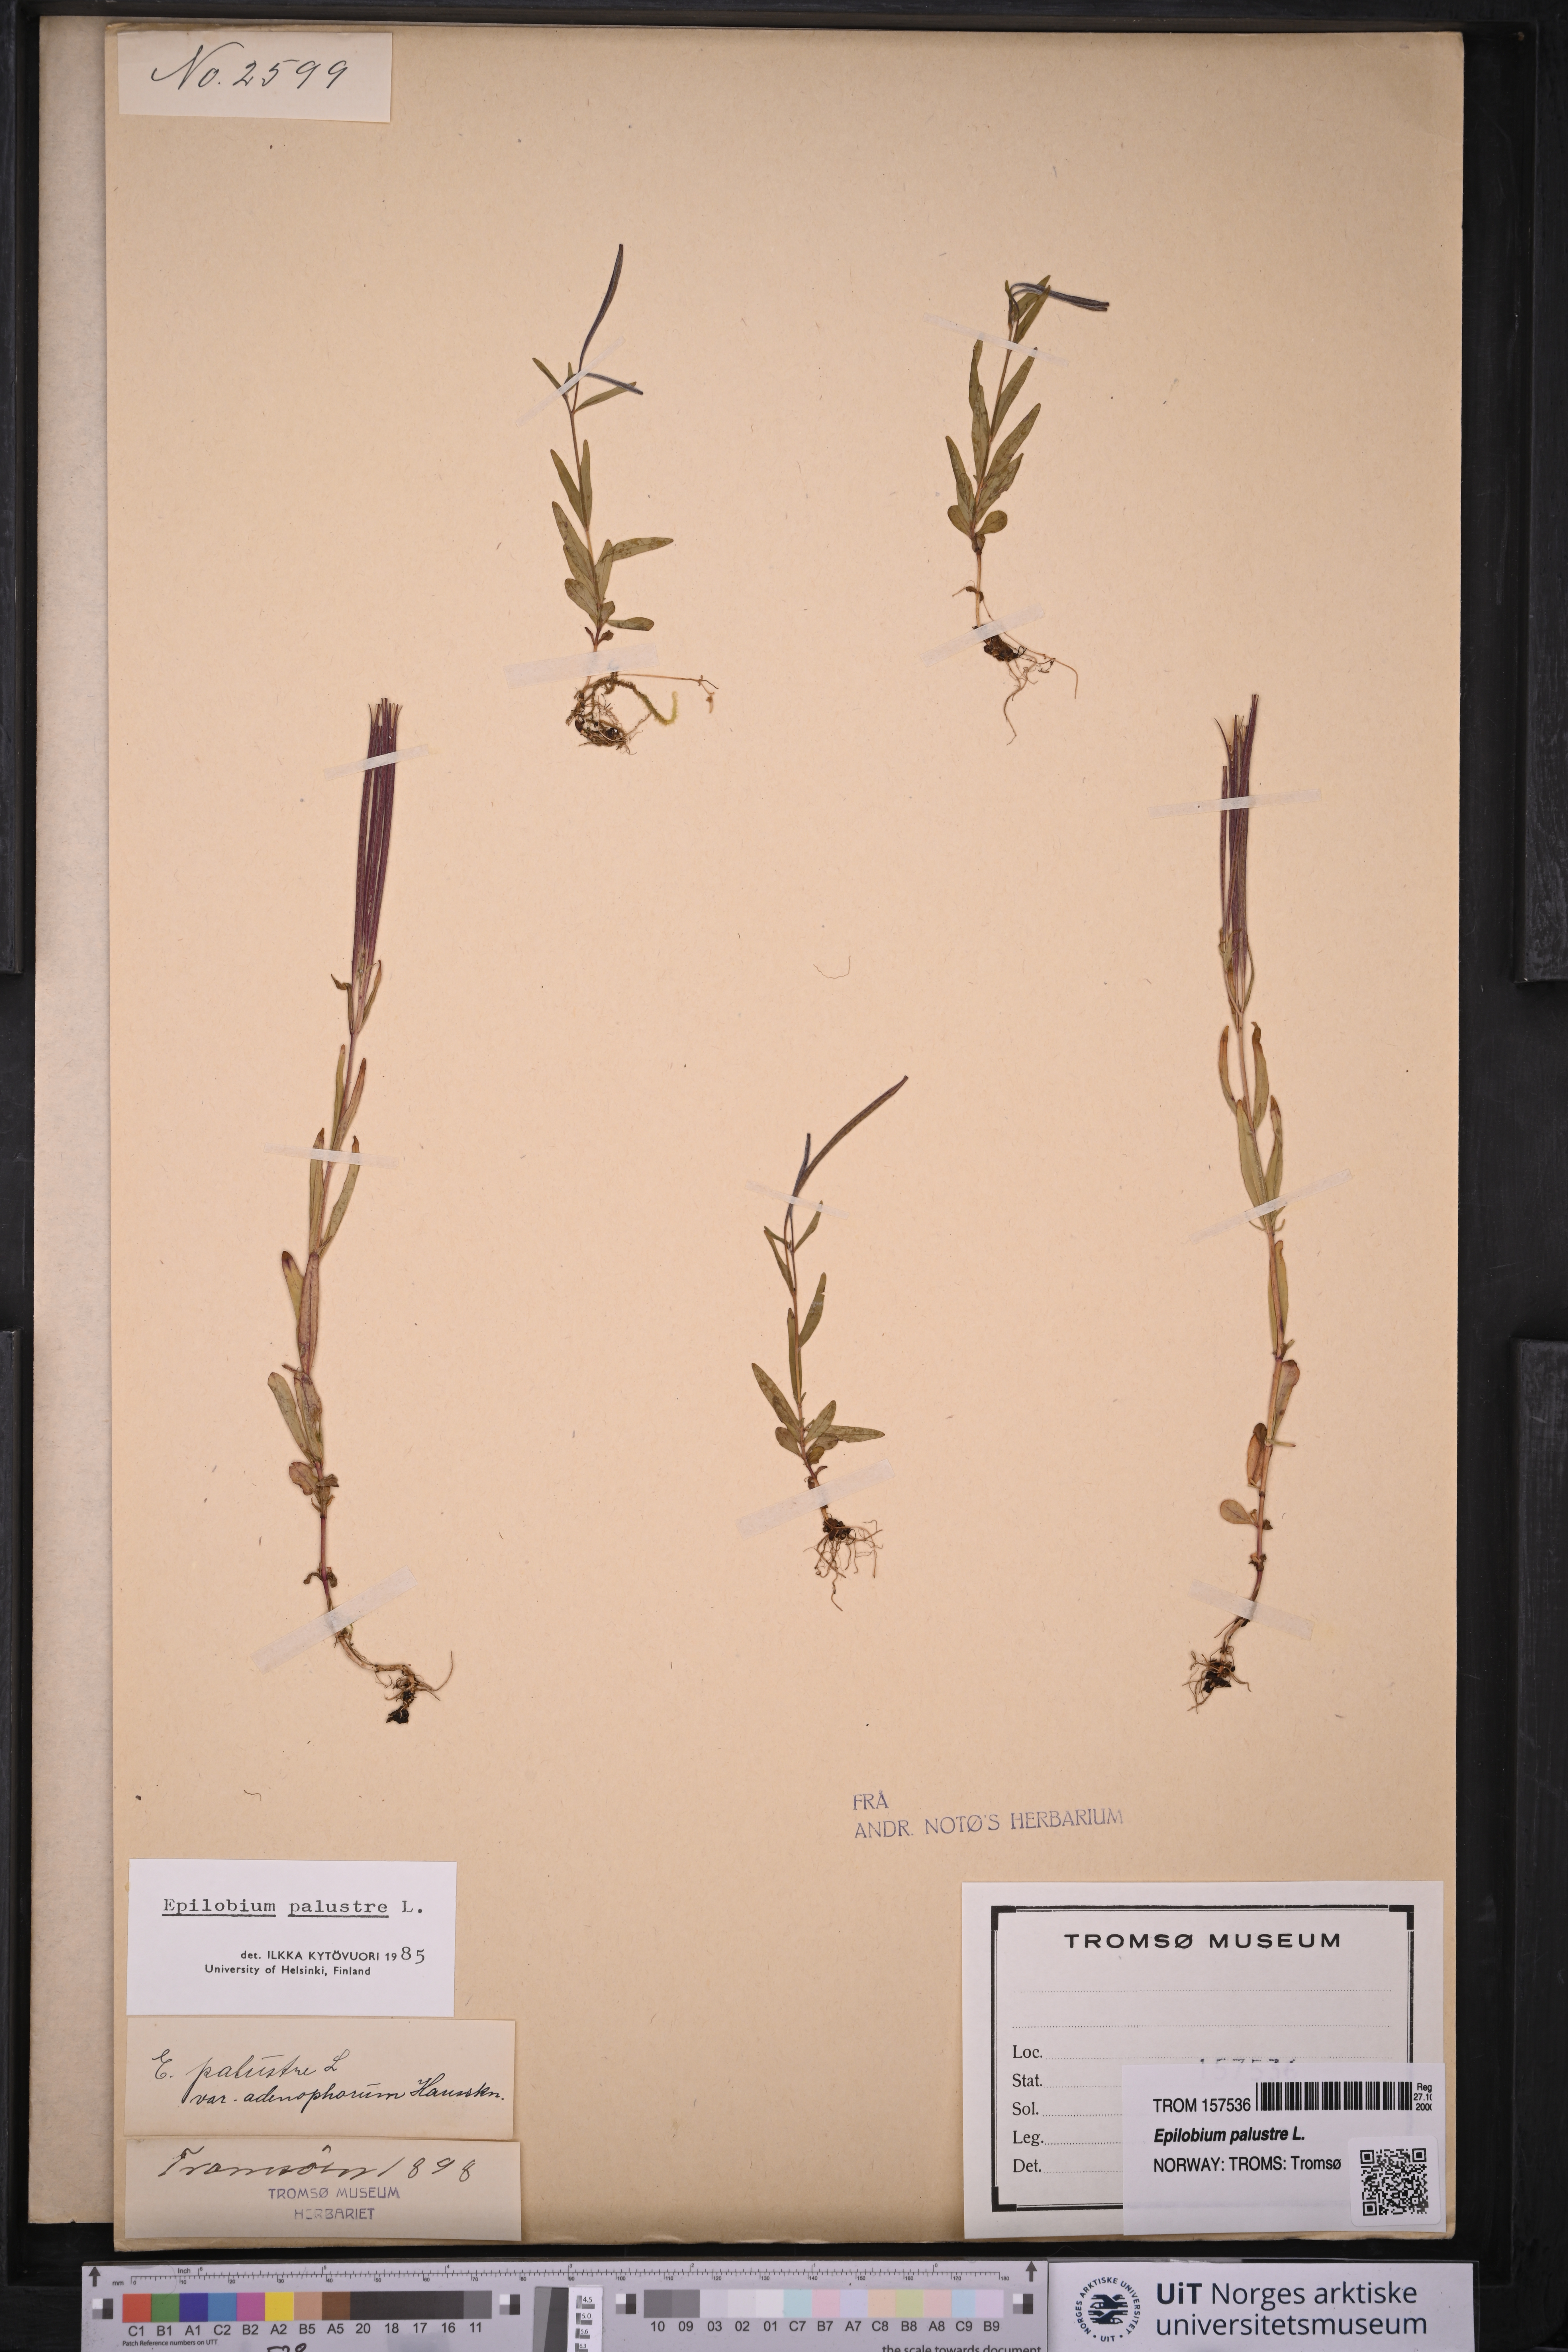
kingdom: Plantae
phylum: Tracheophyta
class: Magnoliopsida
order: Myrtales
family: Onagraceae
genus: Epilobium
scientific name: Epilobium palustre
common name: Marsh willowherb
